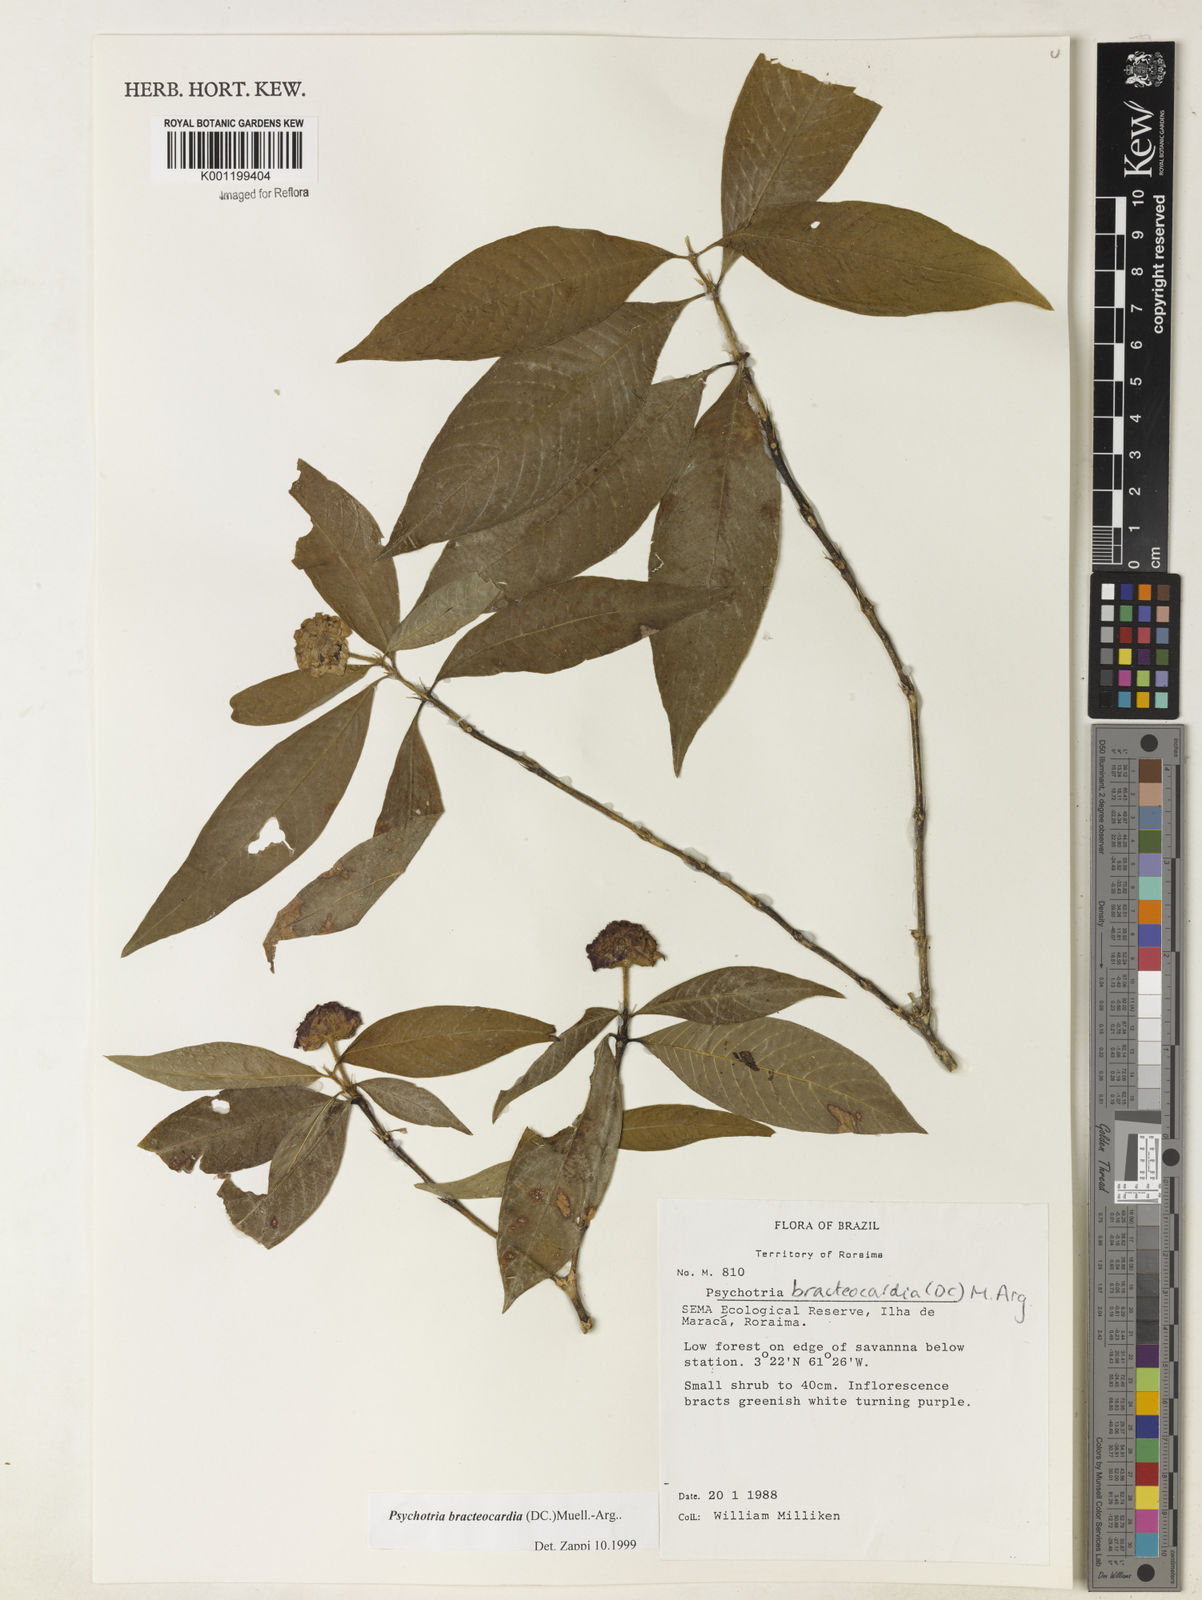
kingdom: Plantae
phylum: Tracheophyta
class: Magnoliopsida
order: Gentianales
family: Rubiaceae
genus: Psychotria
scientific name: Psychotria
